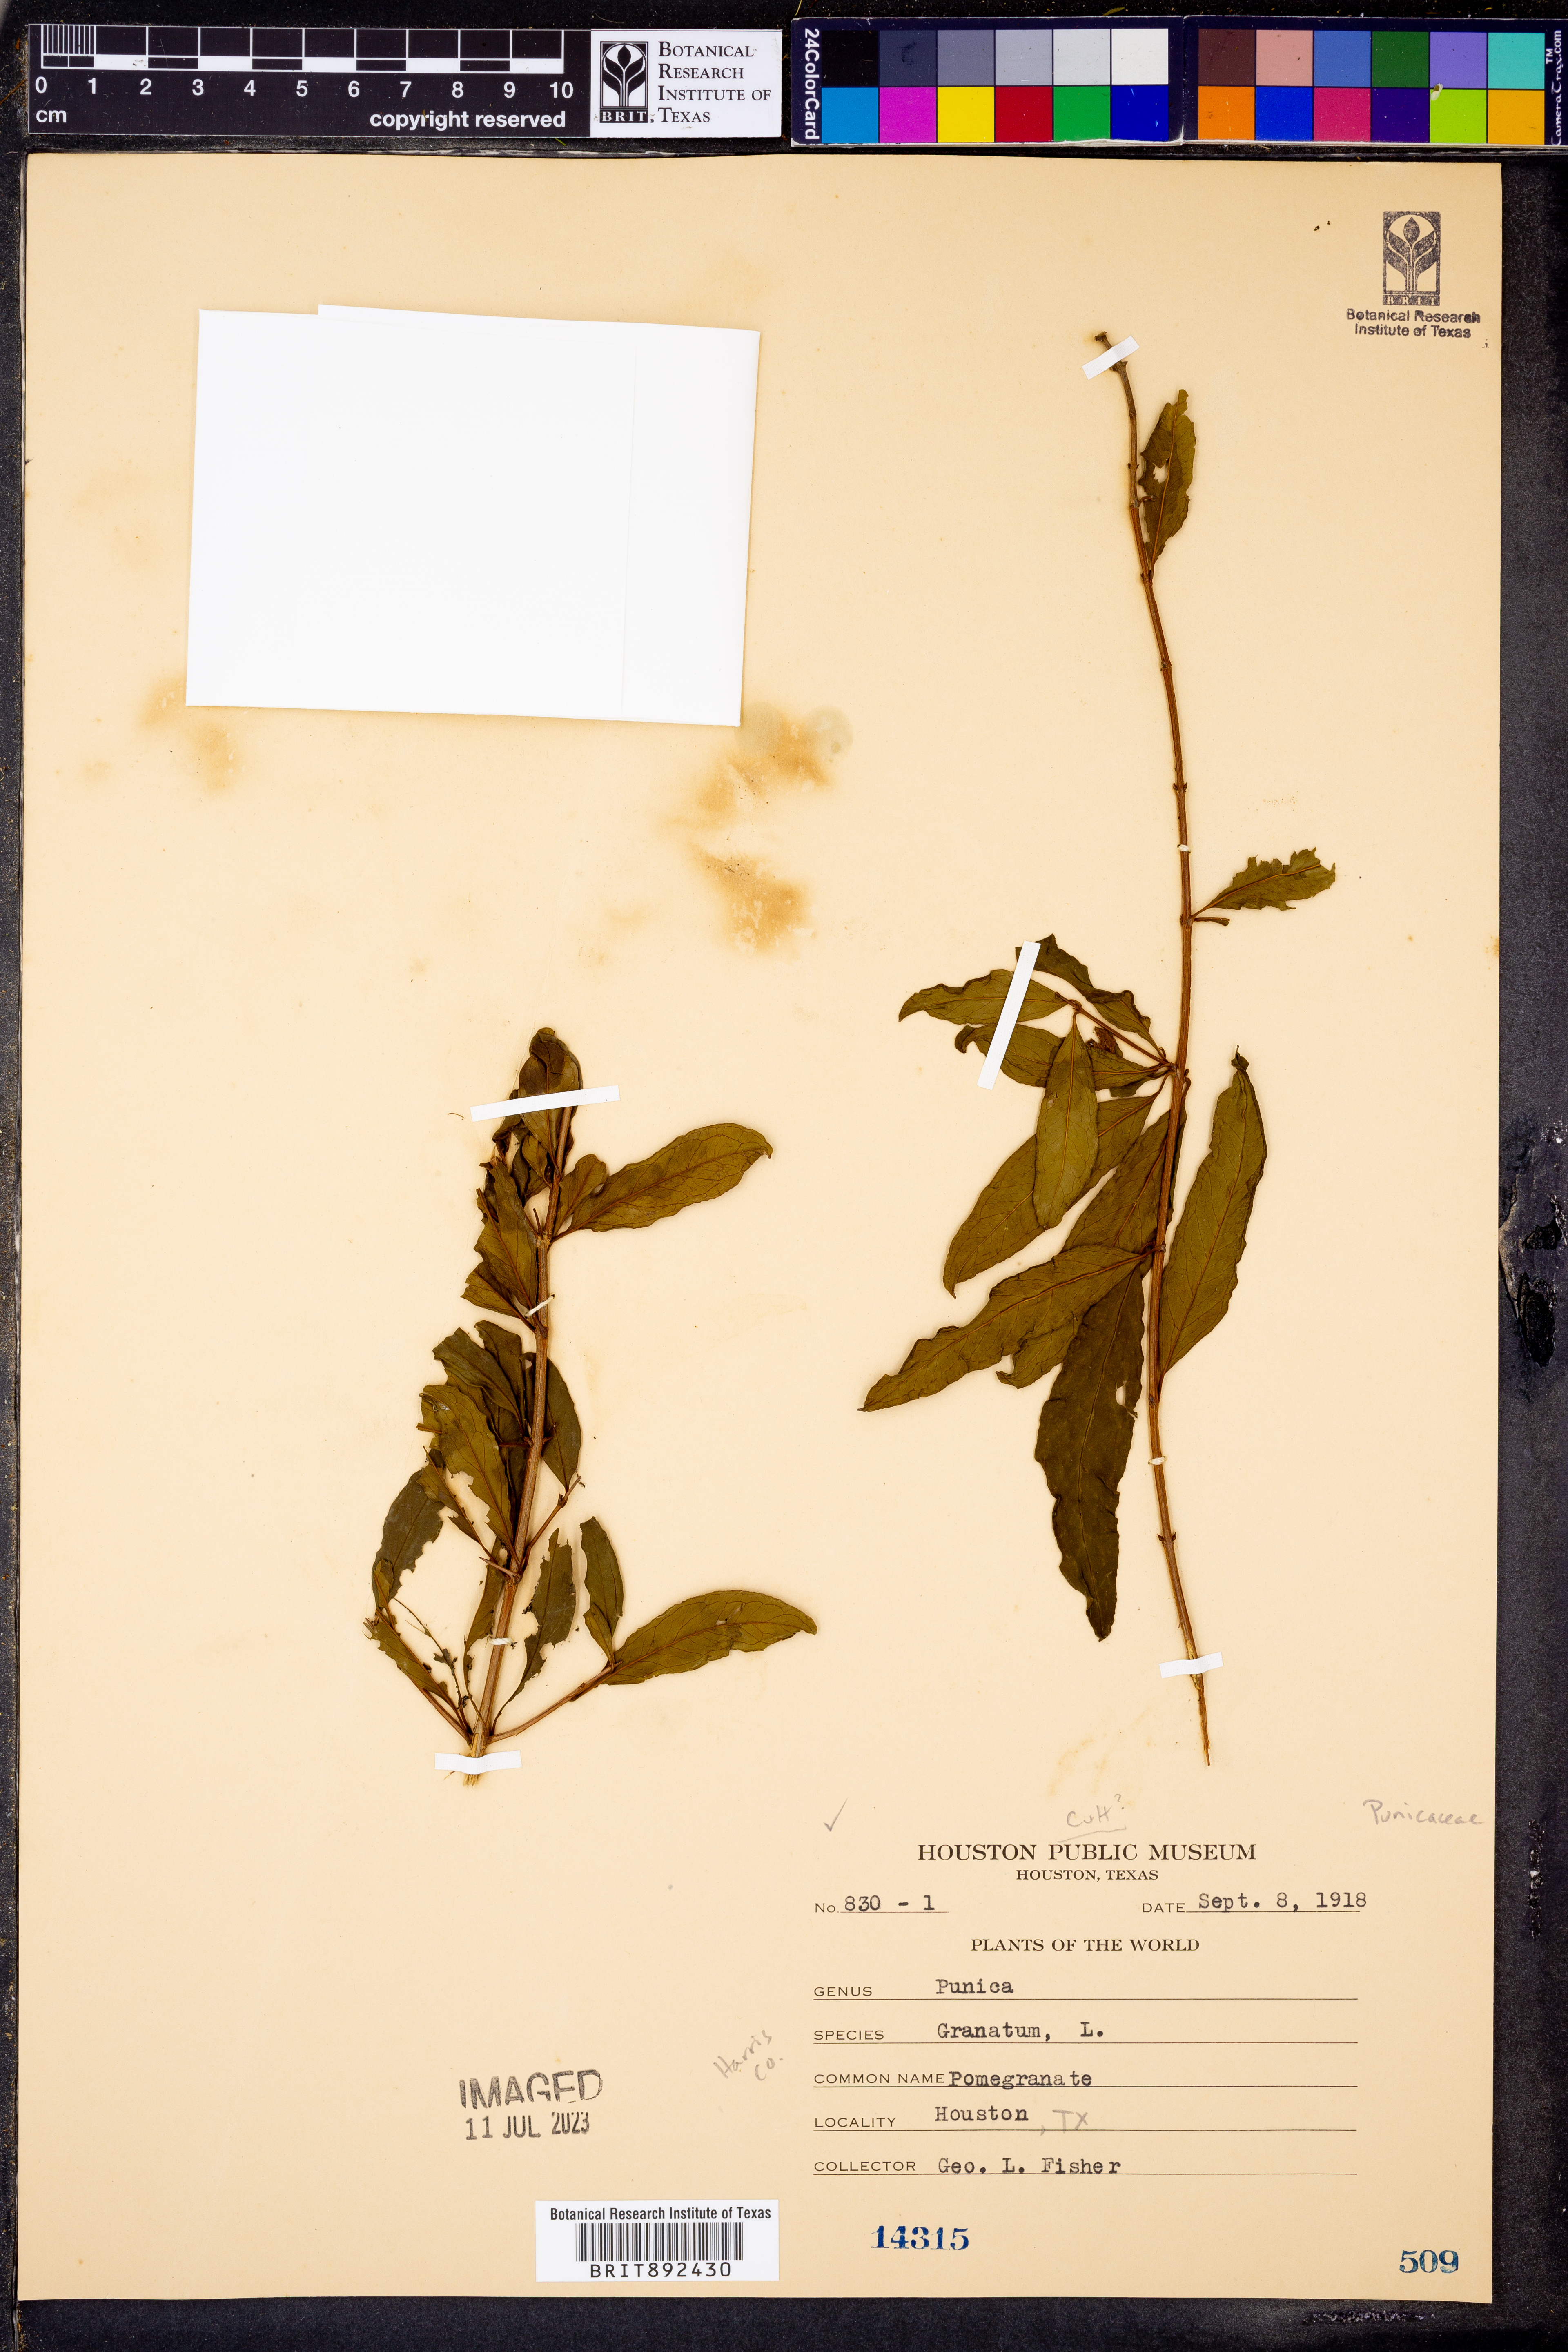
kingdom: Plantae
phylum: Tracheophyta
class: Magnoliopsida
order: Myrtales
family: Lythraceae
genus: Punica
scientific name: Punica granatum
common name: Pomegranate
